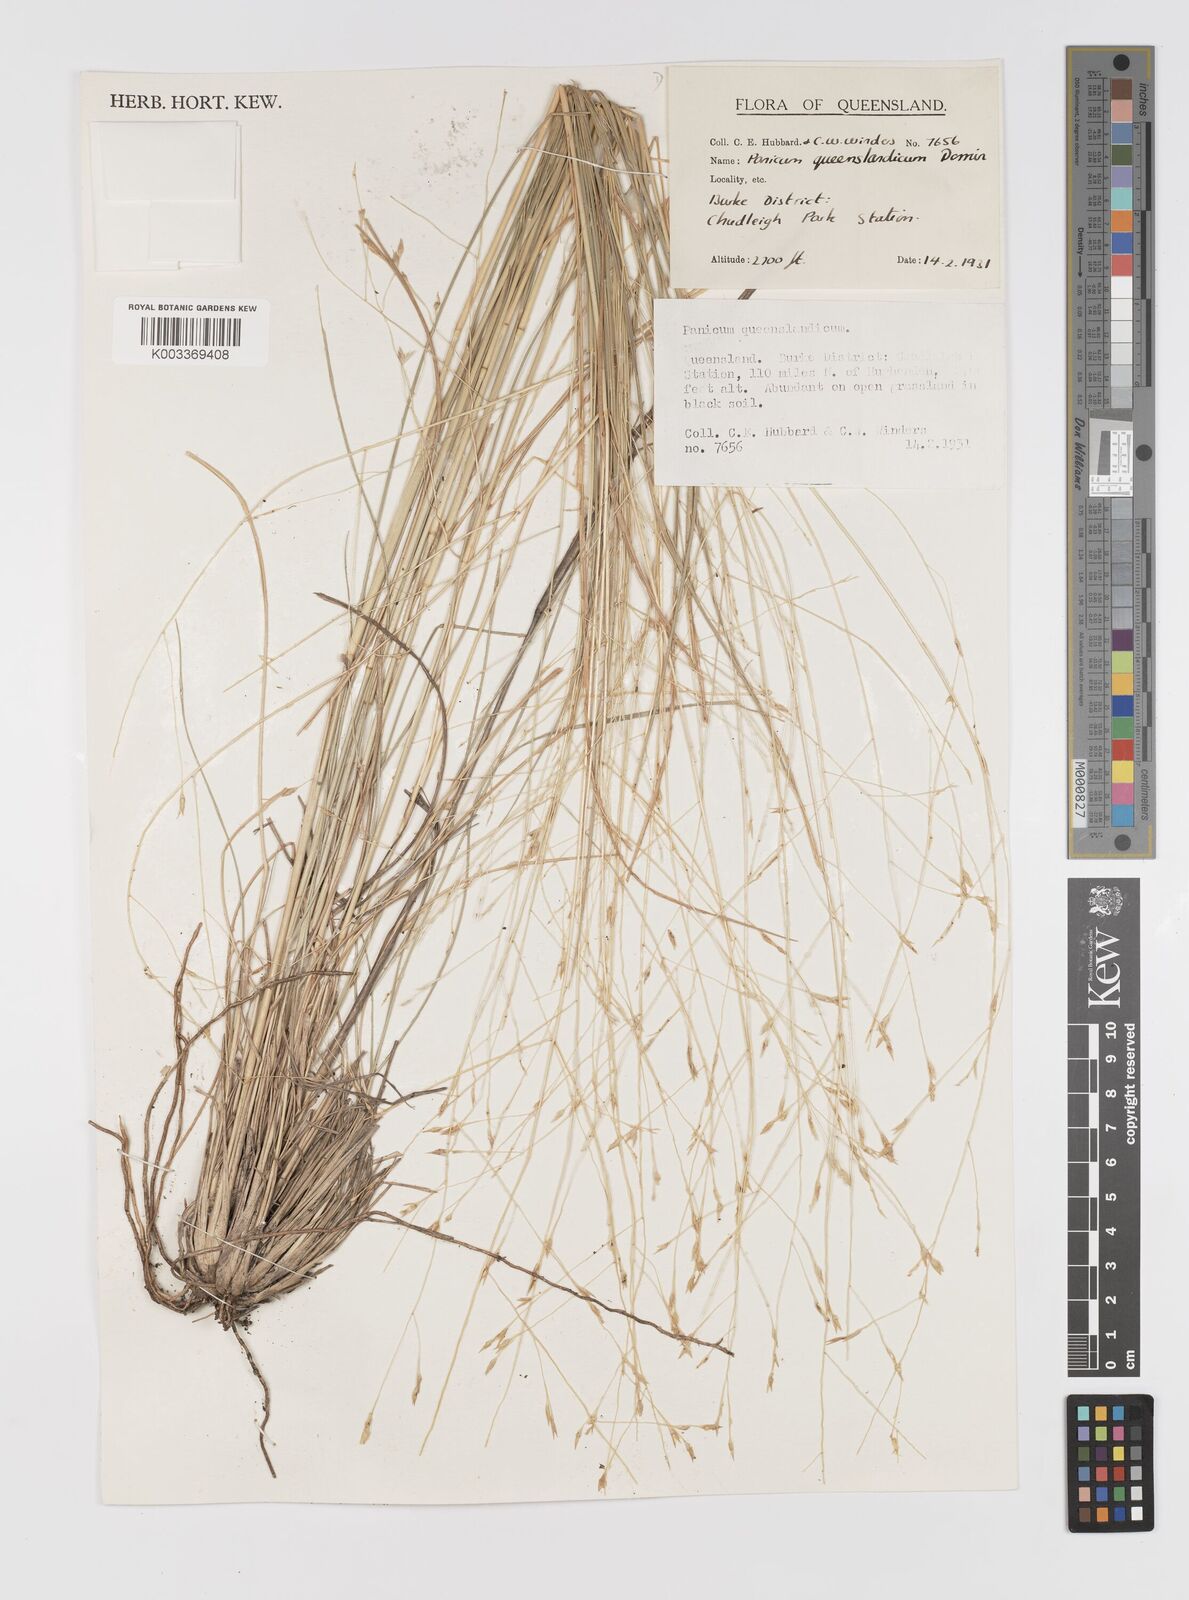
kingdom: Plantae
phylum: Tracheophyta
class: Liliopsida
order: Poales
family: Poaceae
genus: Panicum
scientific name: Panicum queenslandicum
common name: Yabila grass
